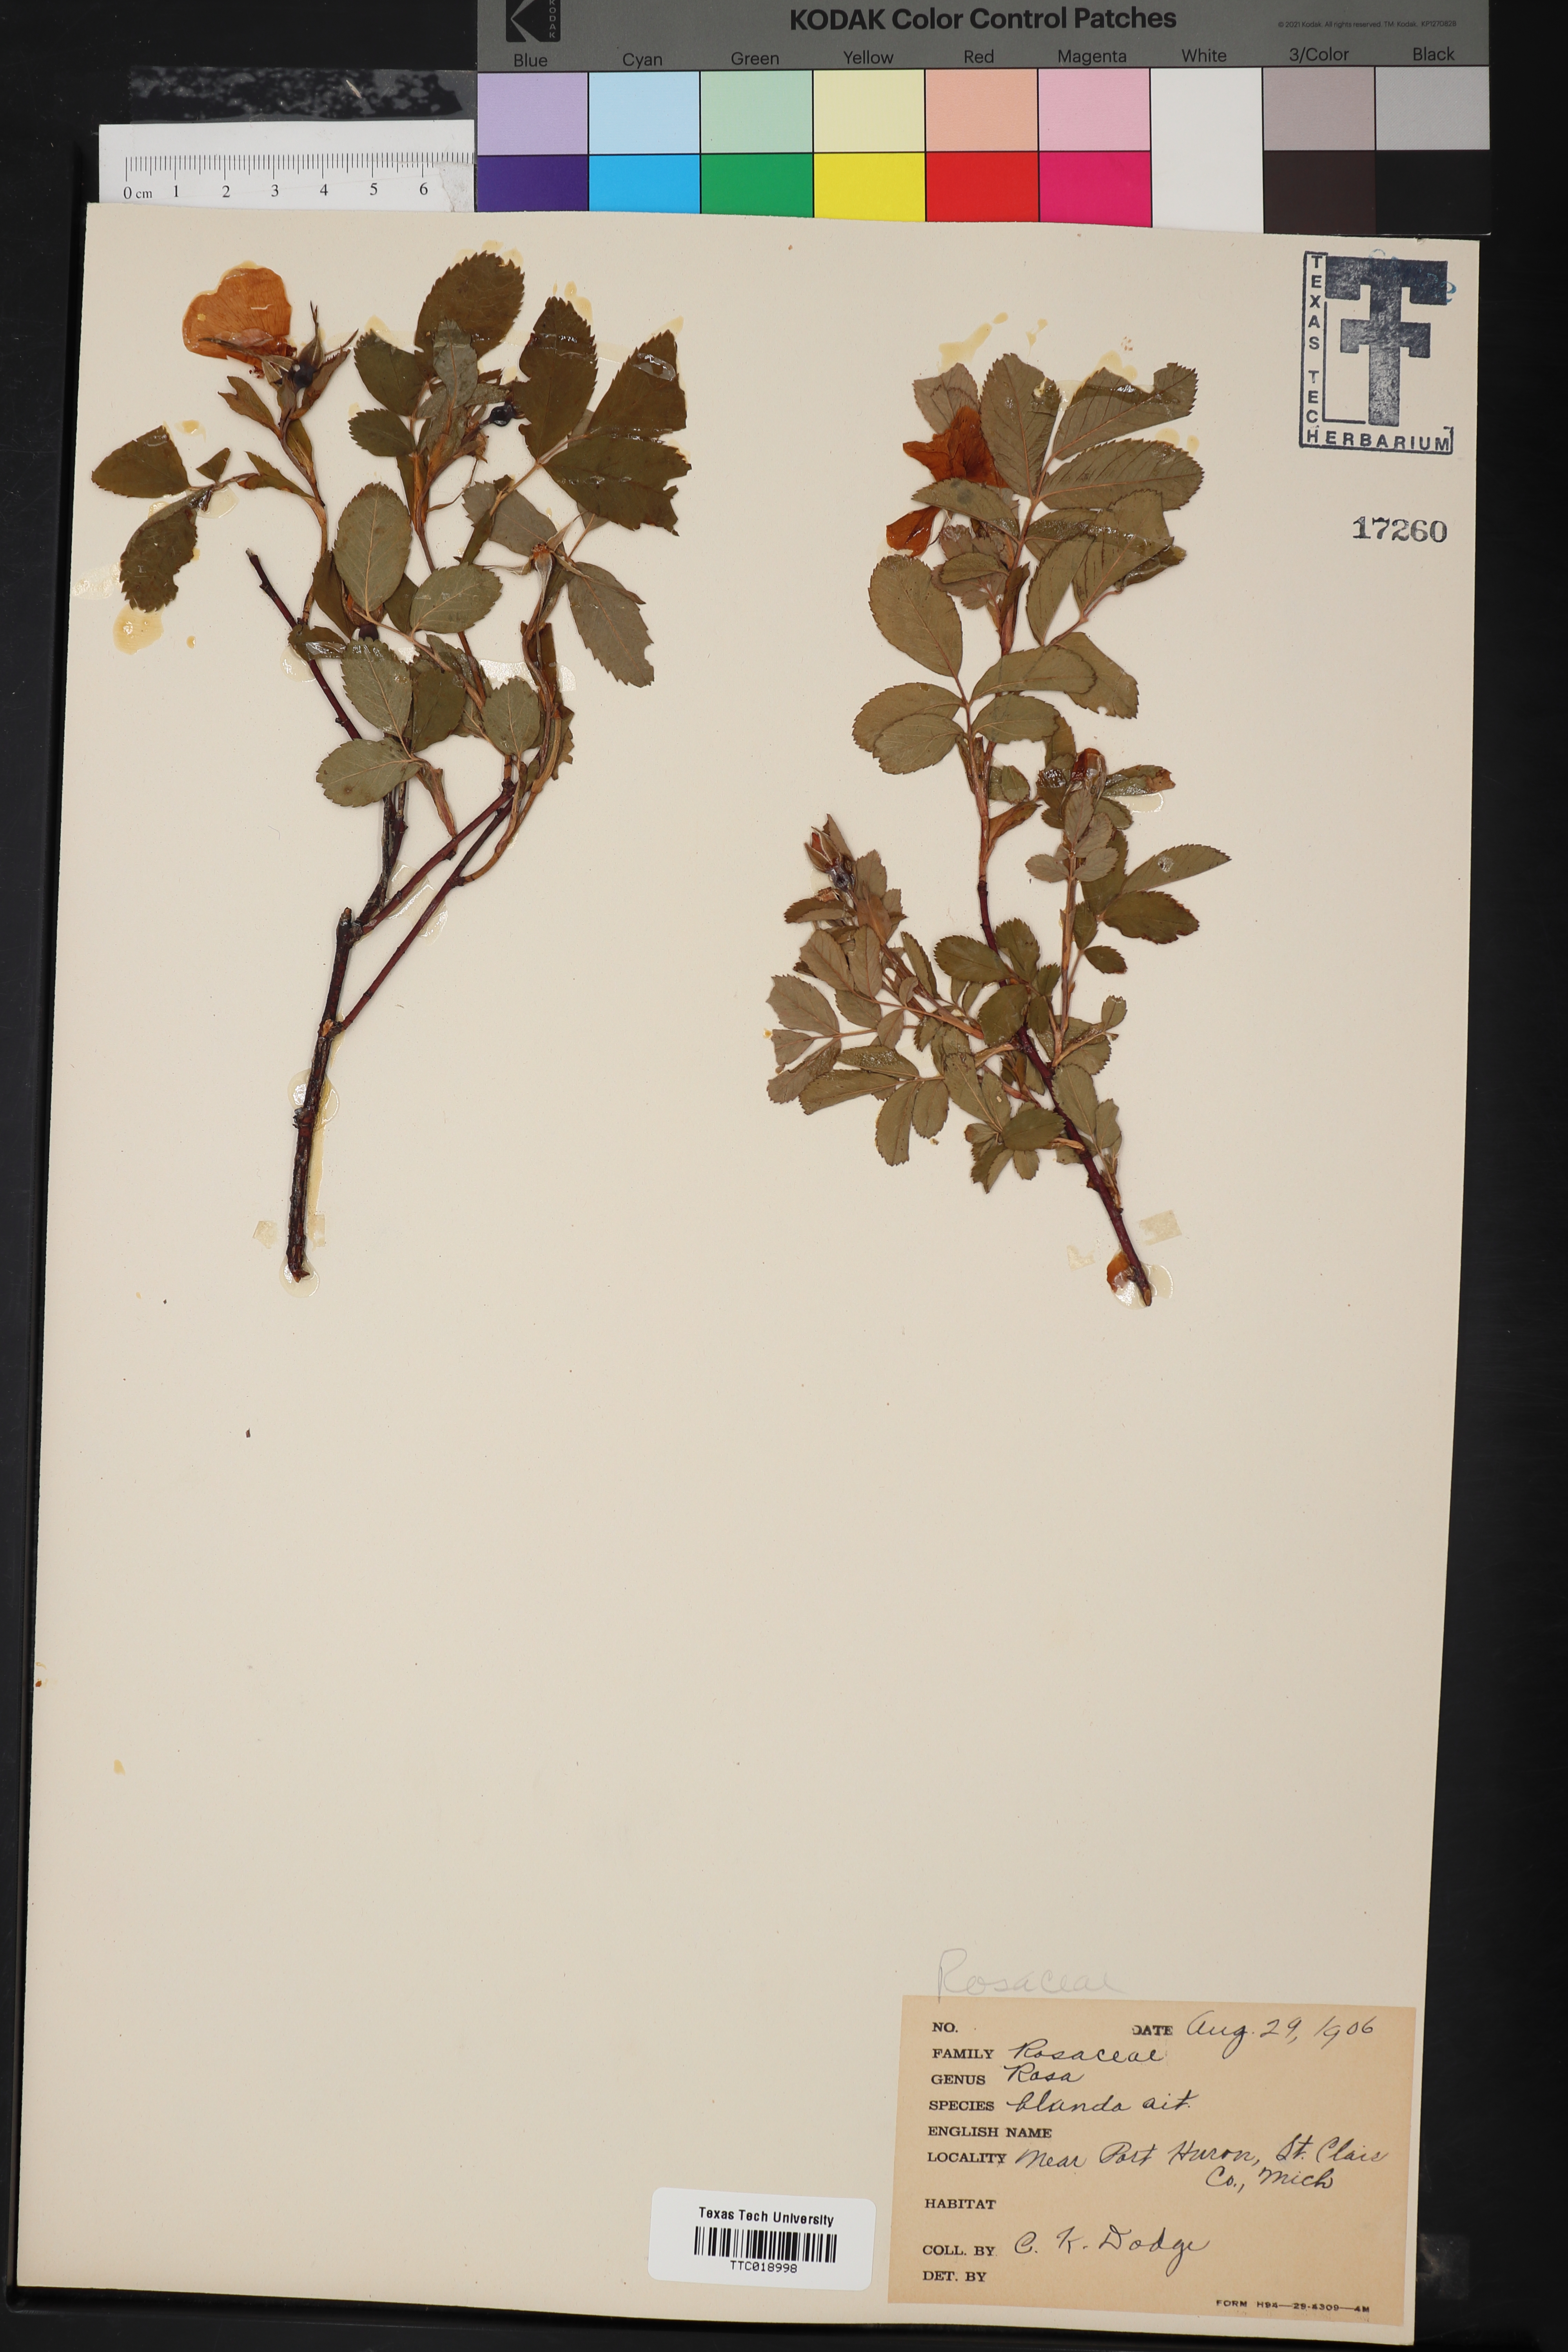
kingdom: Plantae
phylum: Tracheophyta
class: Magnoliopsida
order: Rosales
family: Rosaceae
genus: Rosa
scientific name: Rosa carolina
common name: Pasture rose
